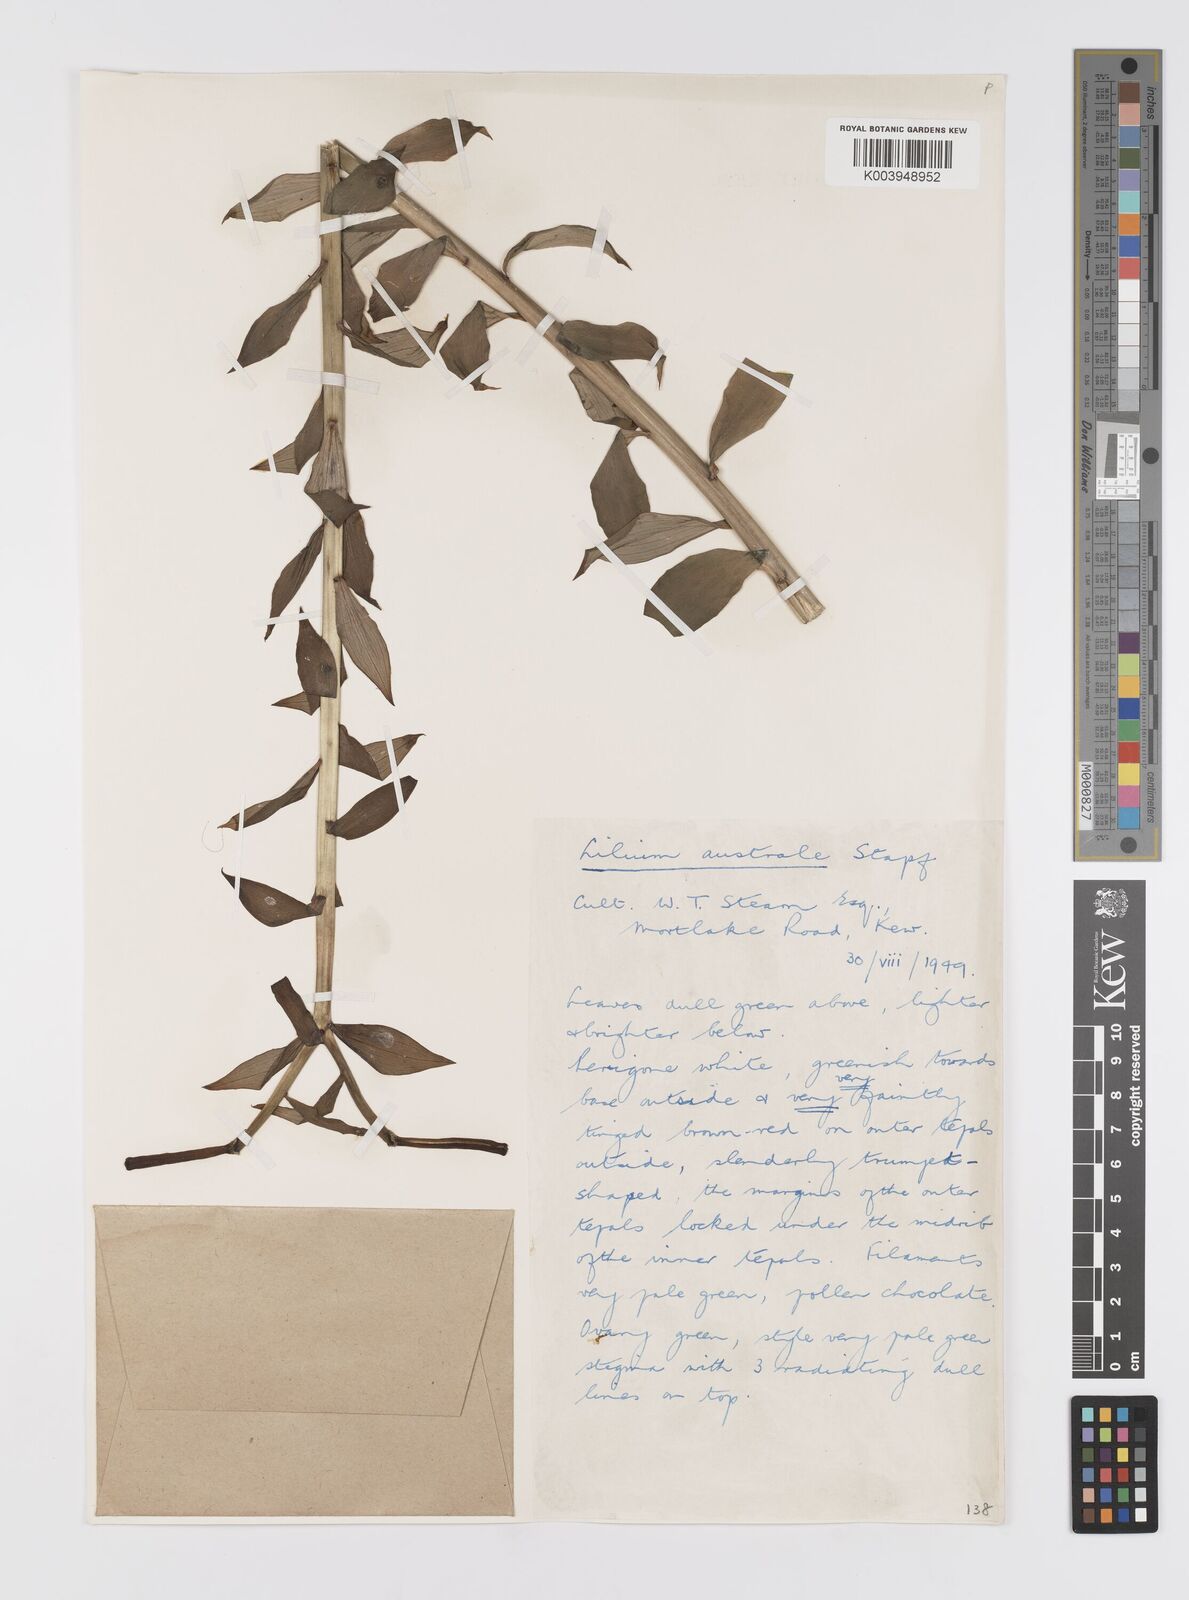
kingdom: Plantae
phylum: Tracheophyta
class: Liliopsida
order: Liliales
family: Liliaceae
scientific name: Liliaceae
